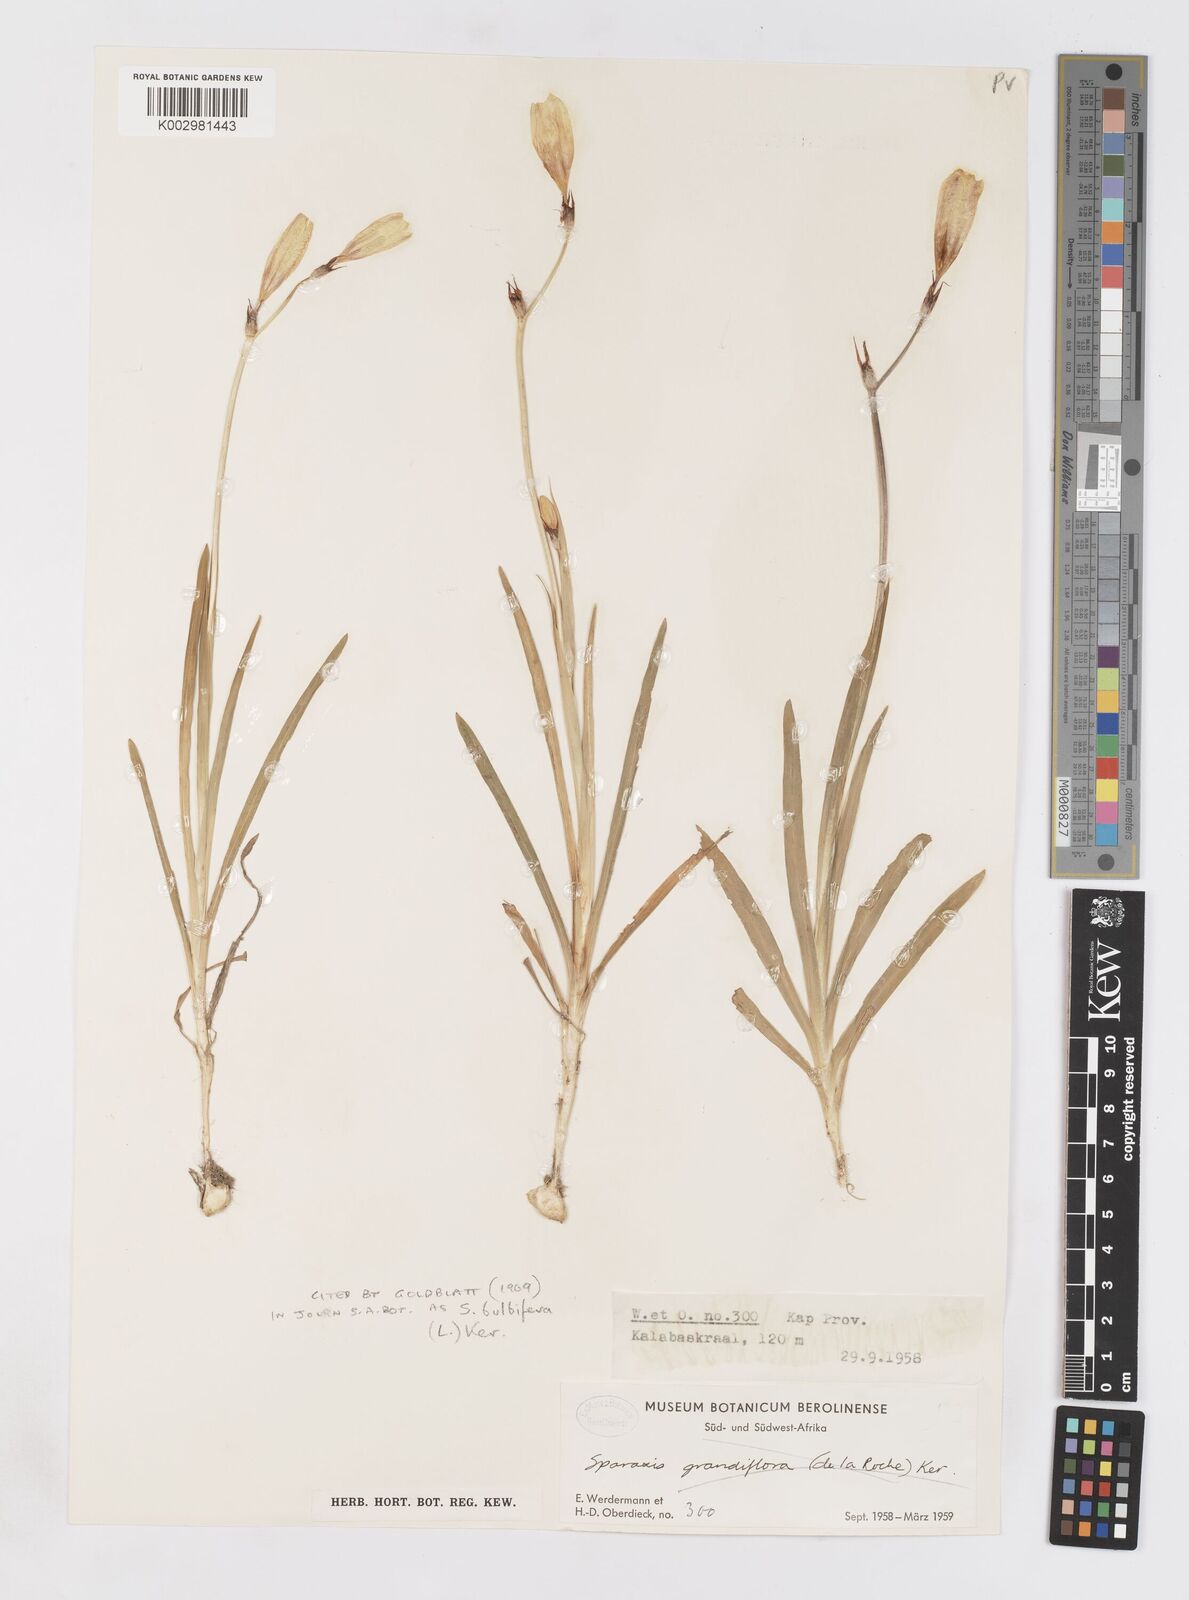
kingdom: Plantae
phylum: Tracheophyta
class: Liliopsida
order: Asparagales
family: Iridaceae
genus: Sparaxis
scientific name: Sparaxis bulbifera
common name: Harlequin-flower
